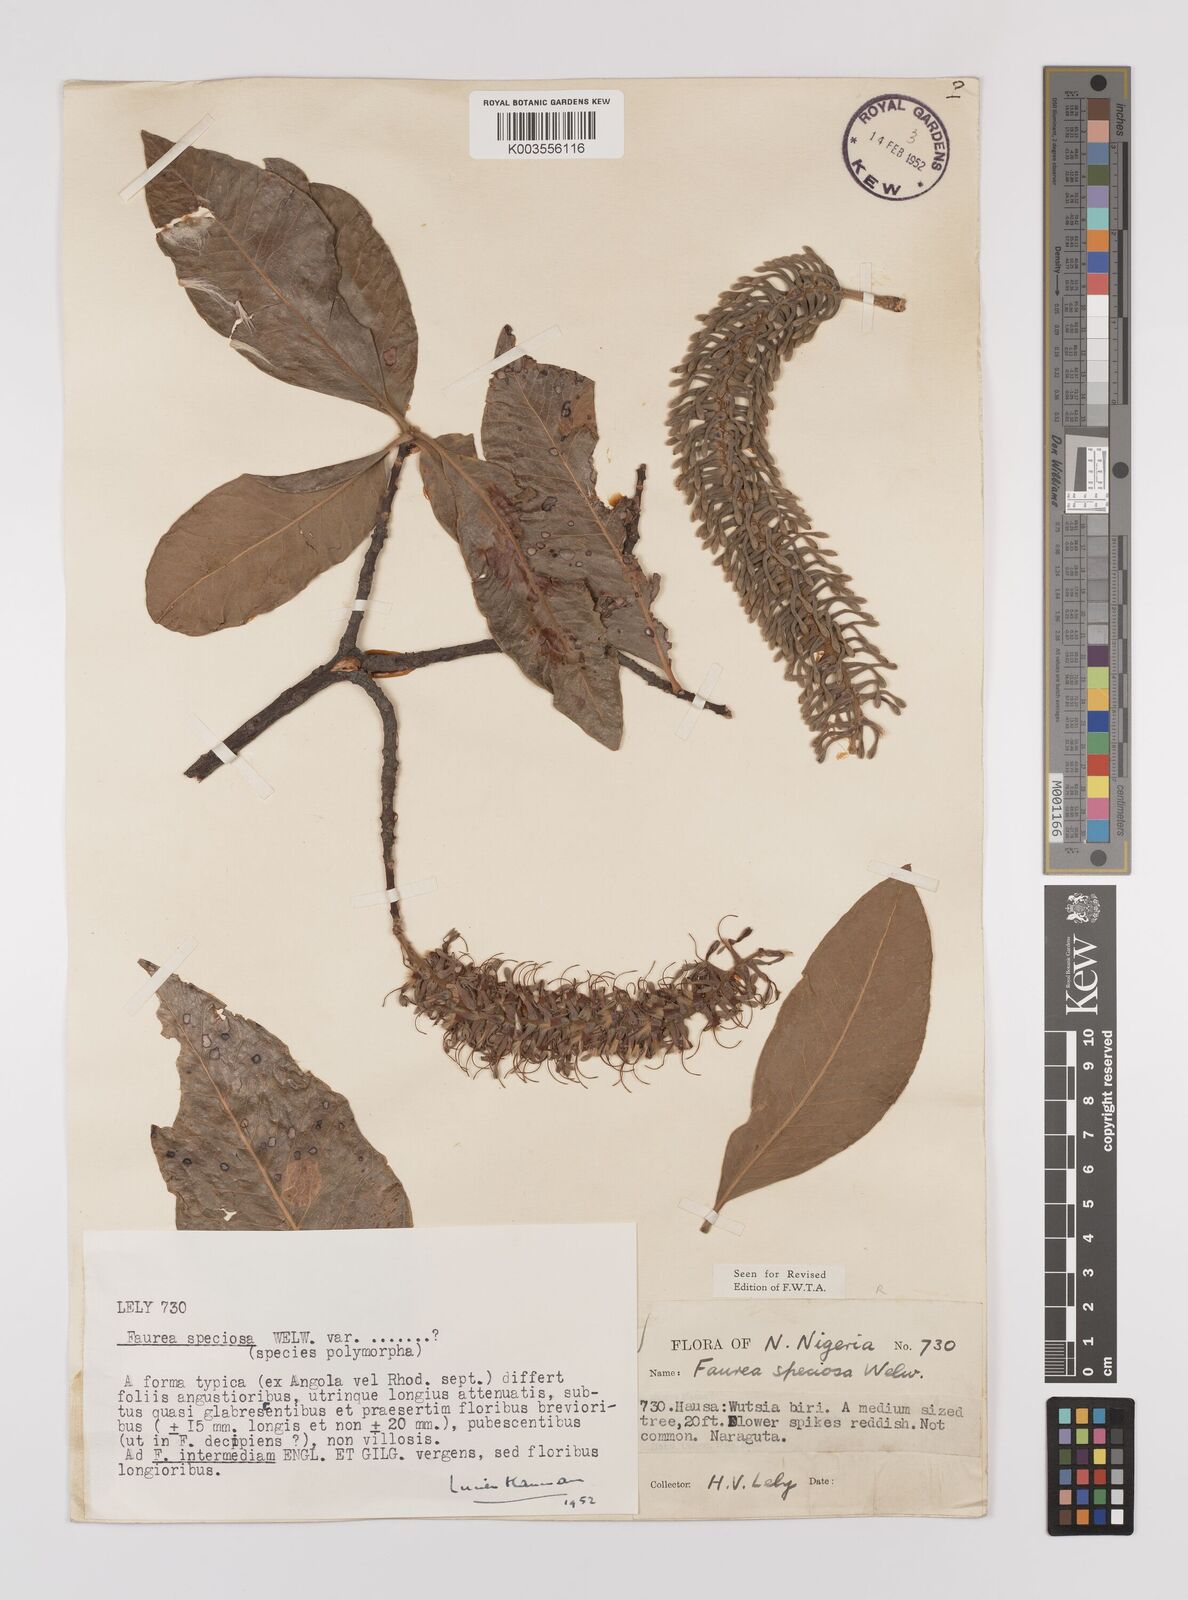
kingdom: Plantae
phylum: Tracheophyta
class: Magnoliopsida
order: Proteales
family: Proteaceae
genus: Faurea
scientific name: Faurea rochetiana
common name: Broad-leaved beech
